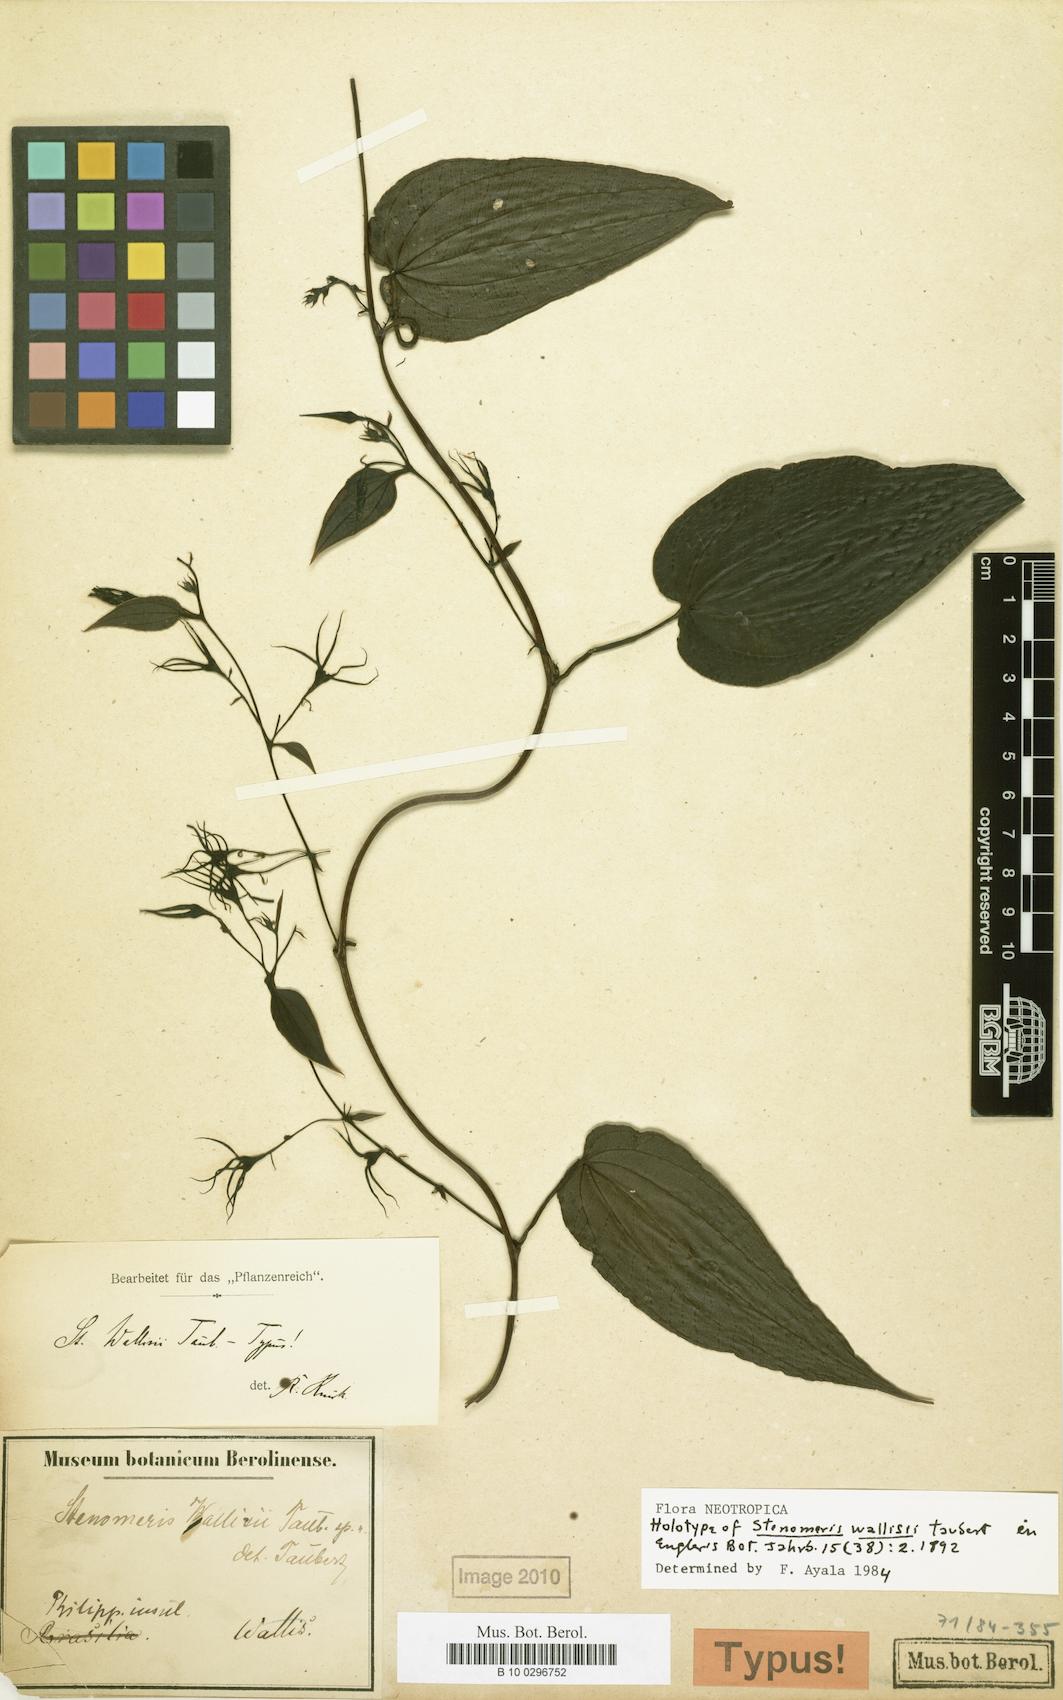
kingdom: Plantae
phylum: Tracheophyta
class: Liliopsida
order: Dioscoreales
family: Dioscoreaceae
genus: Stenomeris
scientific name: Stenomeris dioscoreifolia
